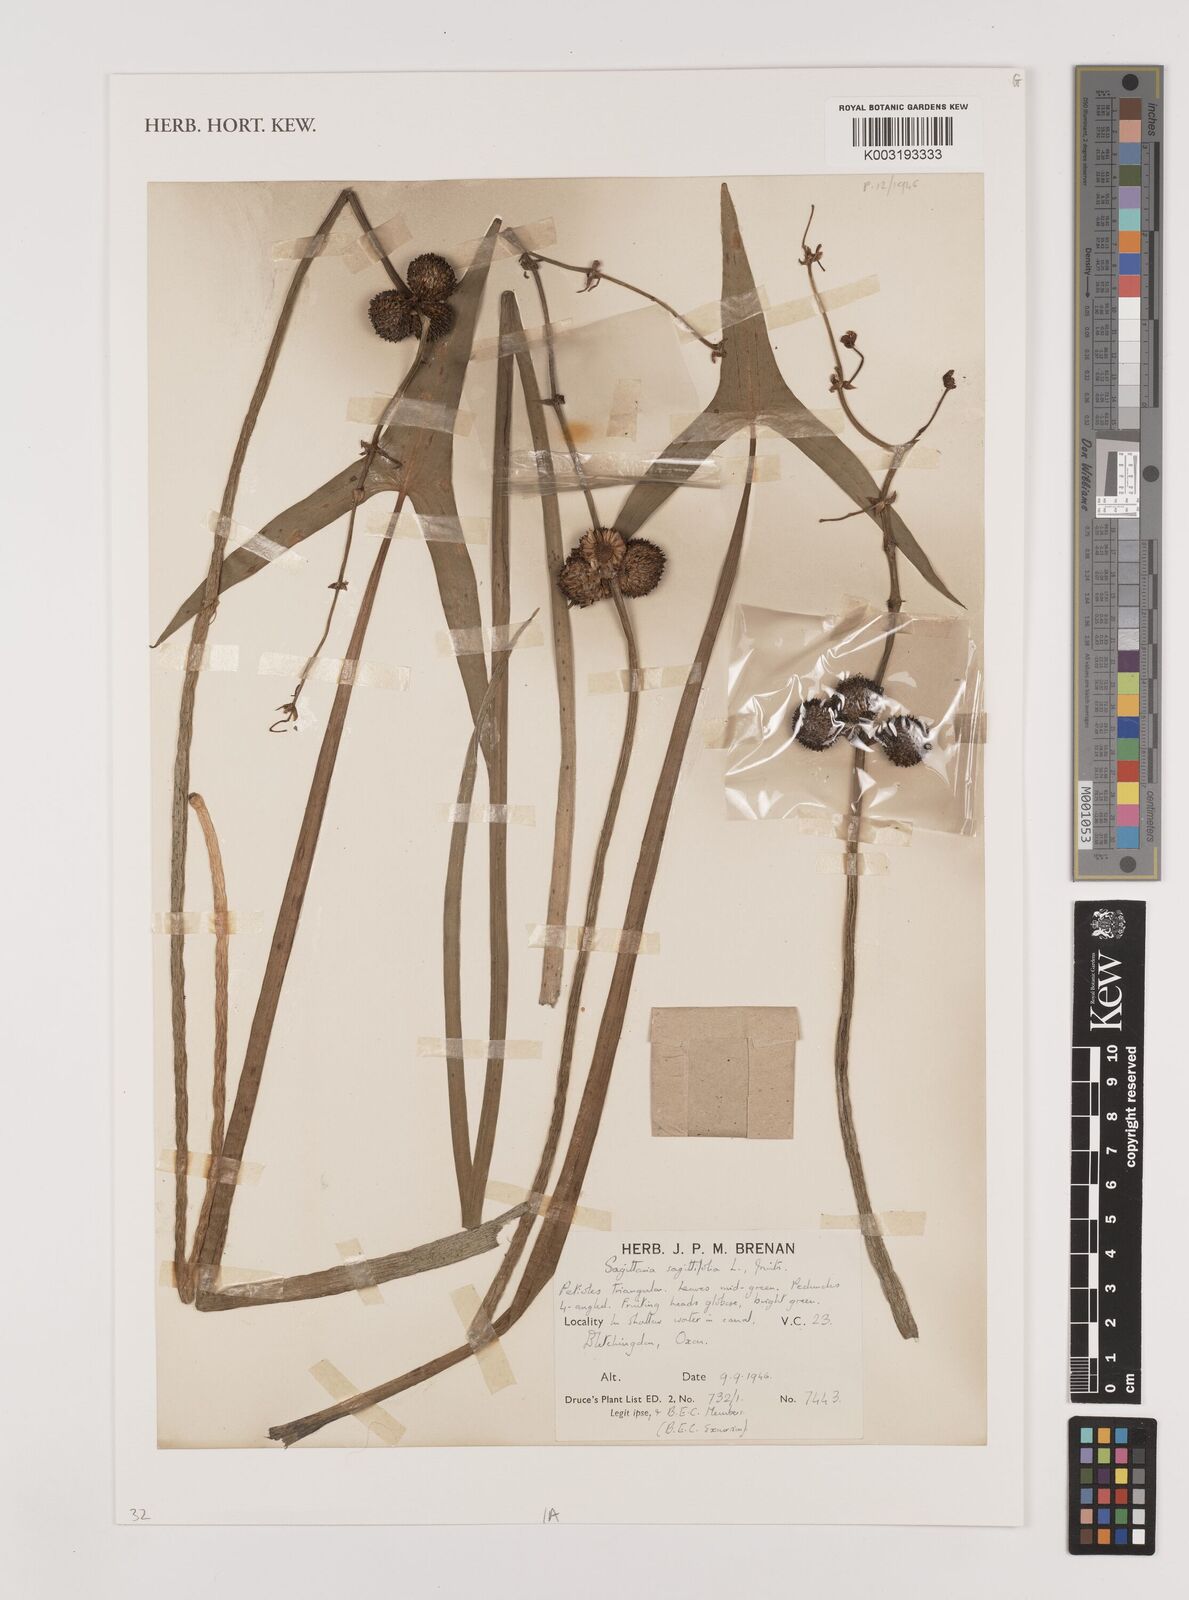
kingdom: Plantae
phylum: Tracheophyta
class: Liliopsida
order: Alismatales
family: Alismataceae
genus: Sagittaria
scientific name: Sagittaria sagittifolia
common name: Arrowhead
